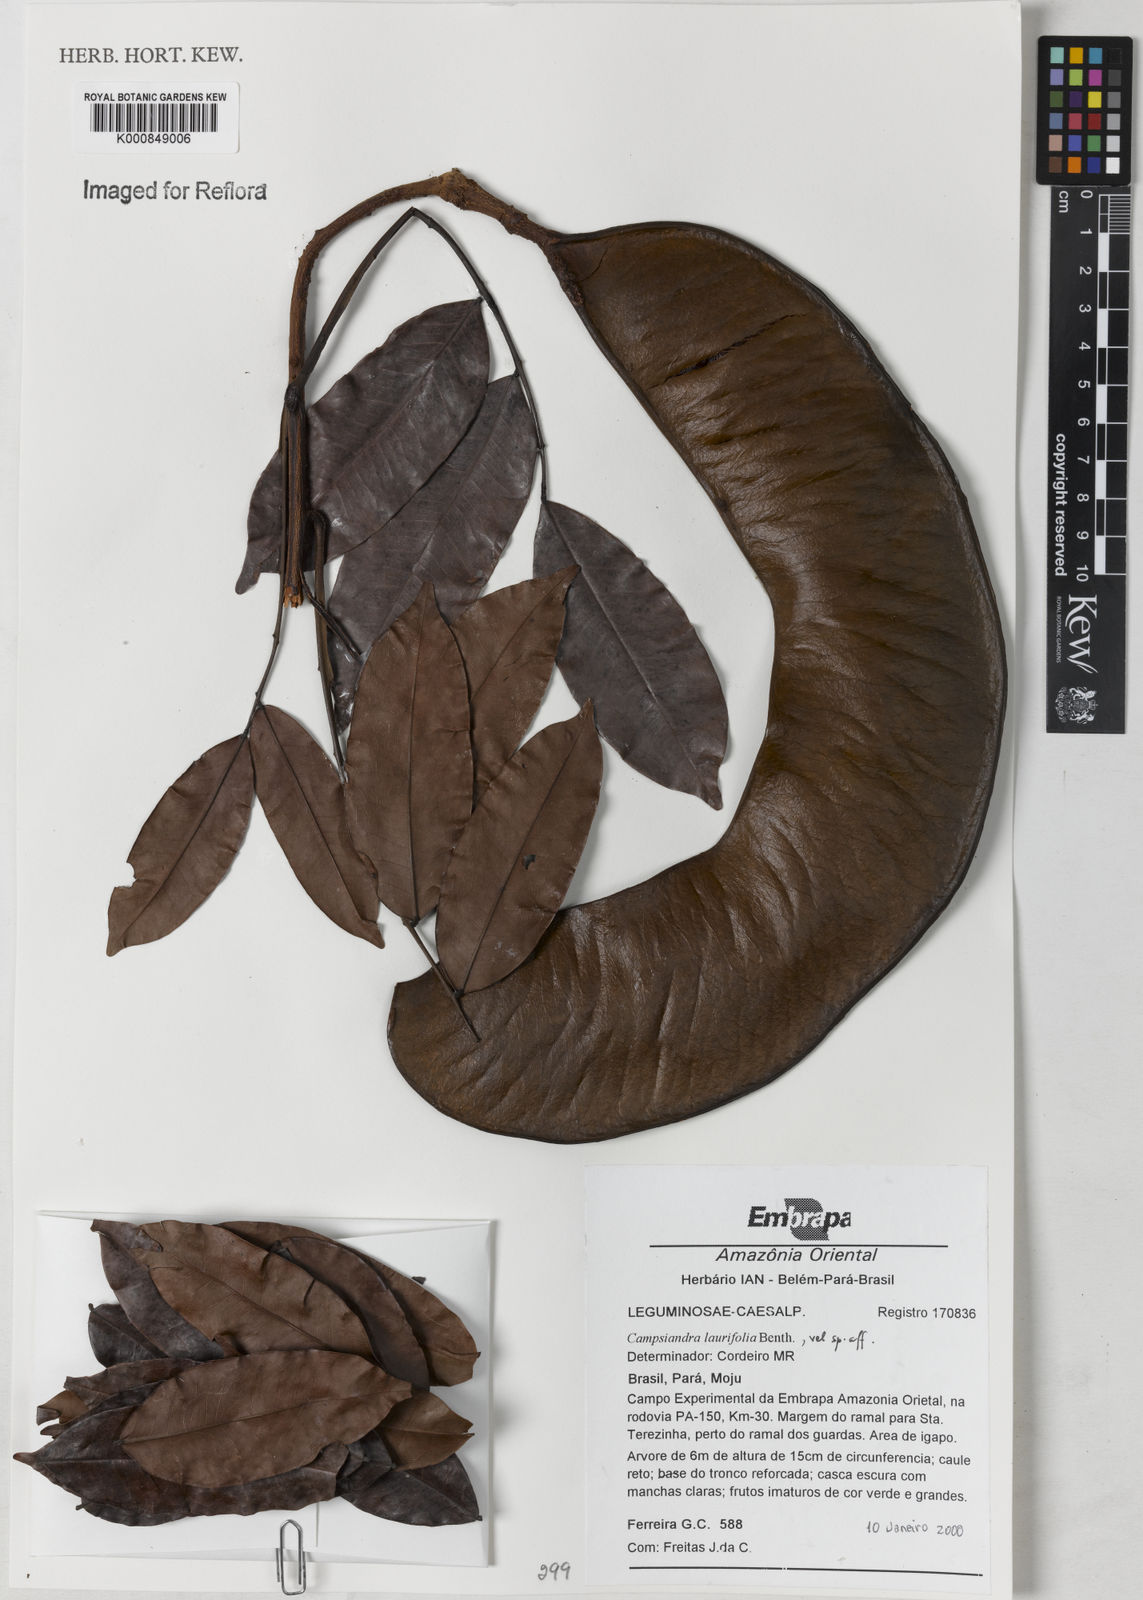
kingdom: Plantae
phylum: Tracheophyta
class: Magnoliopsida
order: Fabales
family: Fabaceae
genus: Campsiandra
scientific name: Campsiandra laurifolia
